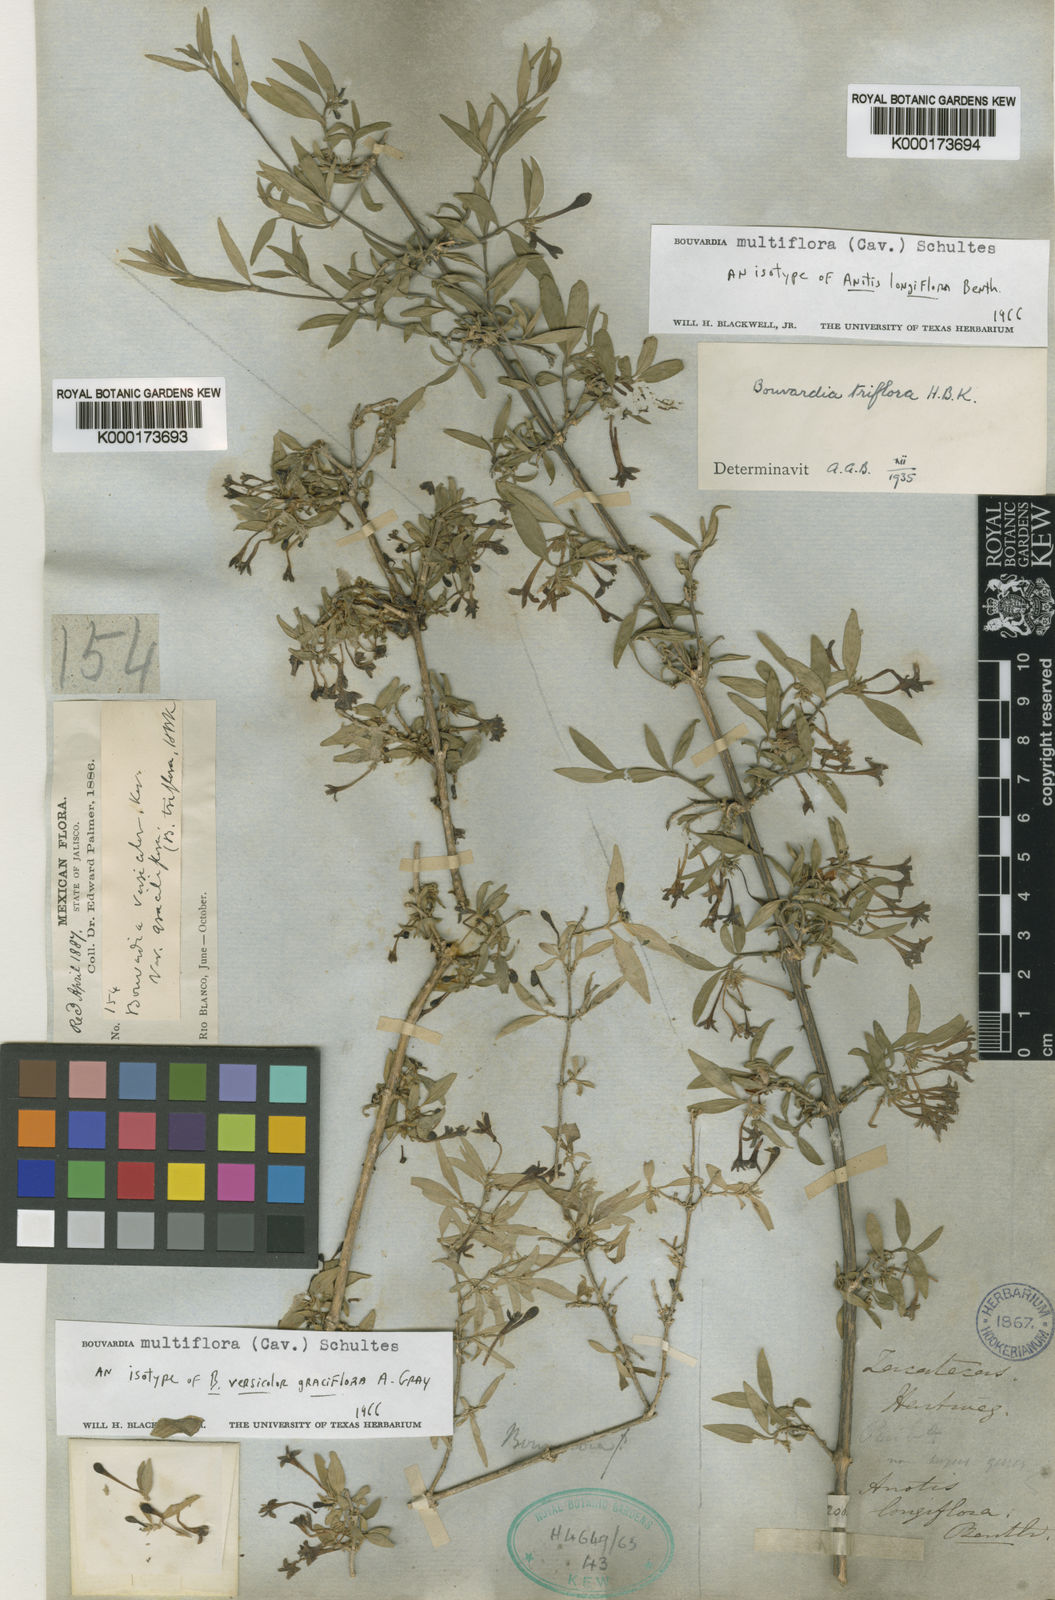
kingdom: Plantae
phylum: Tracheophyta
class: Magnoliopsida
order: Gentianales
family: Rubiaceae
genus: Bouvardia
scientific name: Bouvardia multiflora
